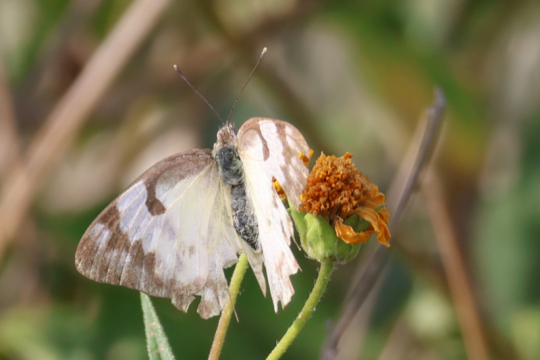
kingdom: Animalia
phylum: Arthropoda
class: Insecta
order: Lepidoptera
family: Pieridae
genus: Belenois
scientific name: Belenois gidica
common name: African Veined White
